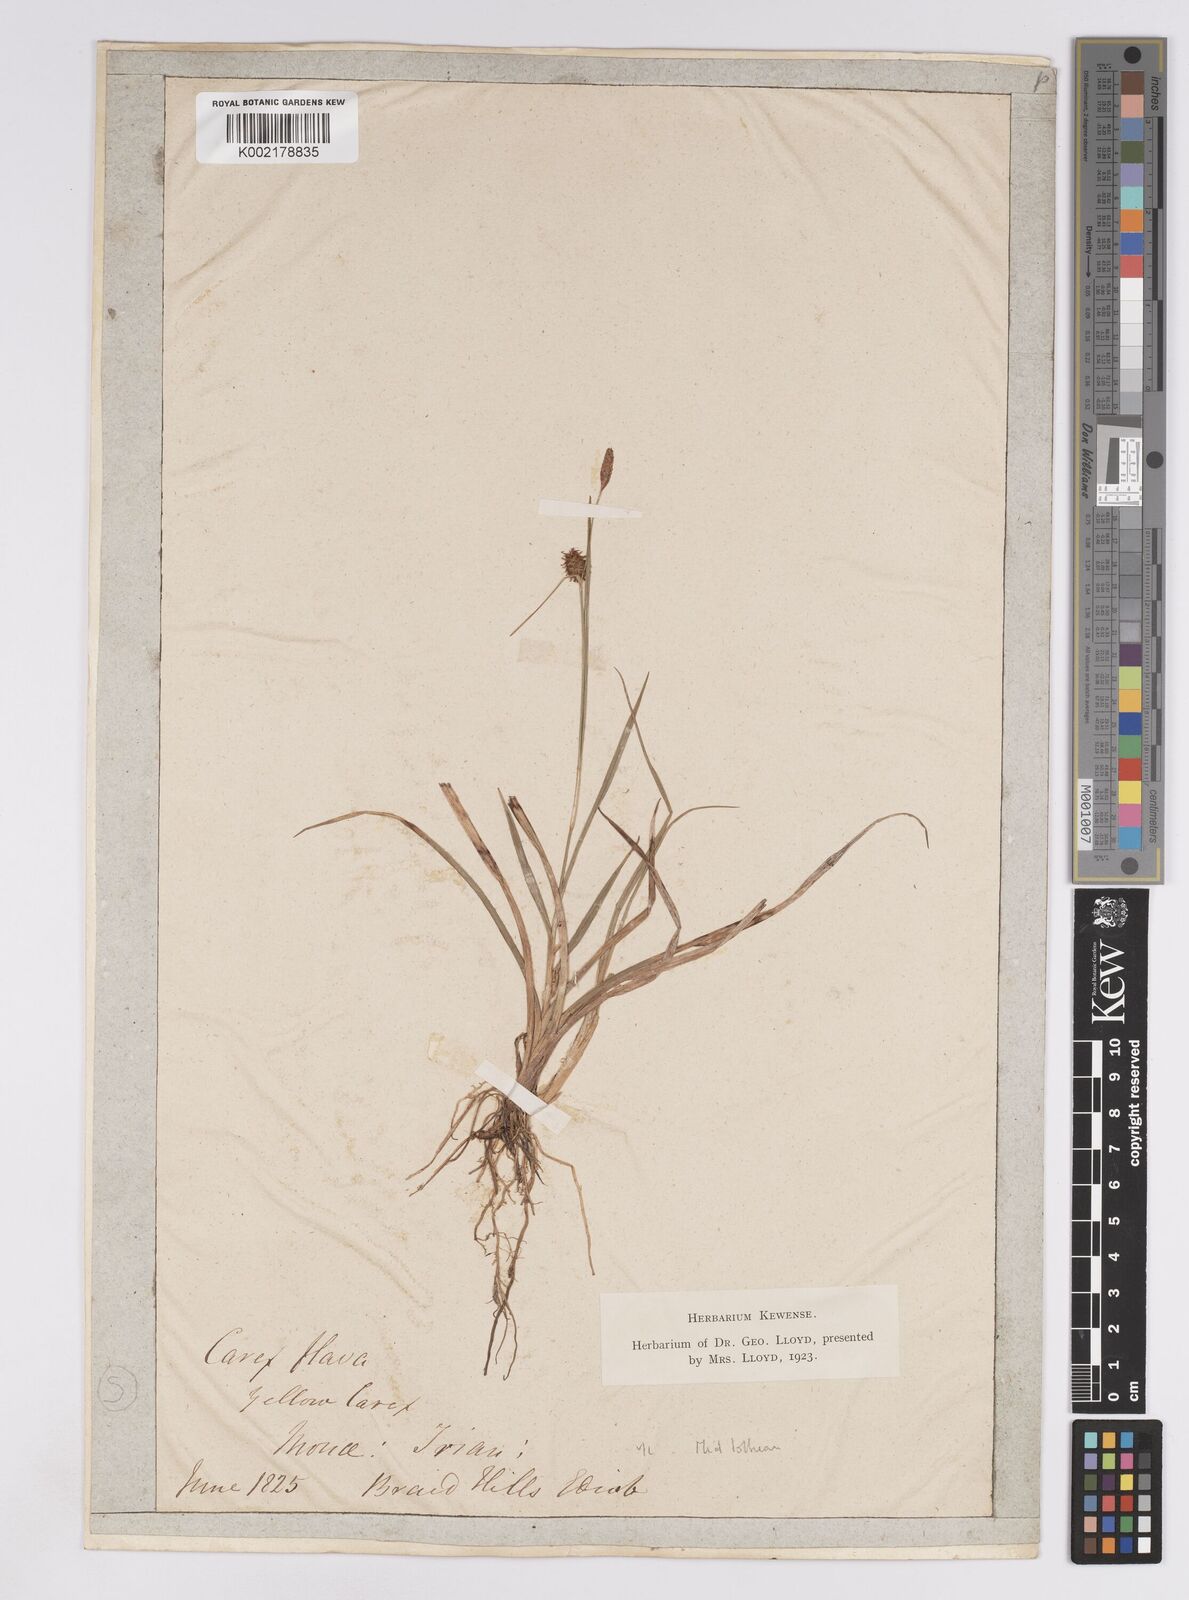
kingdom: Plantae
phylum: Tracheophyta
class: Liliopsida
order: Poales
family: Cyperaceae
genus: Carex
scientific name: Carex lepidocarpa
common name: Long-stalked yellow-sedge
